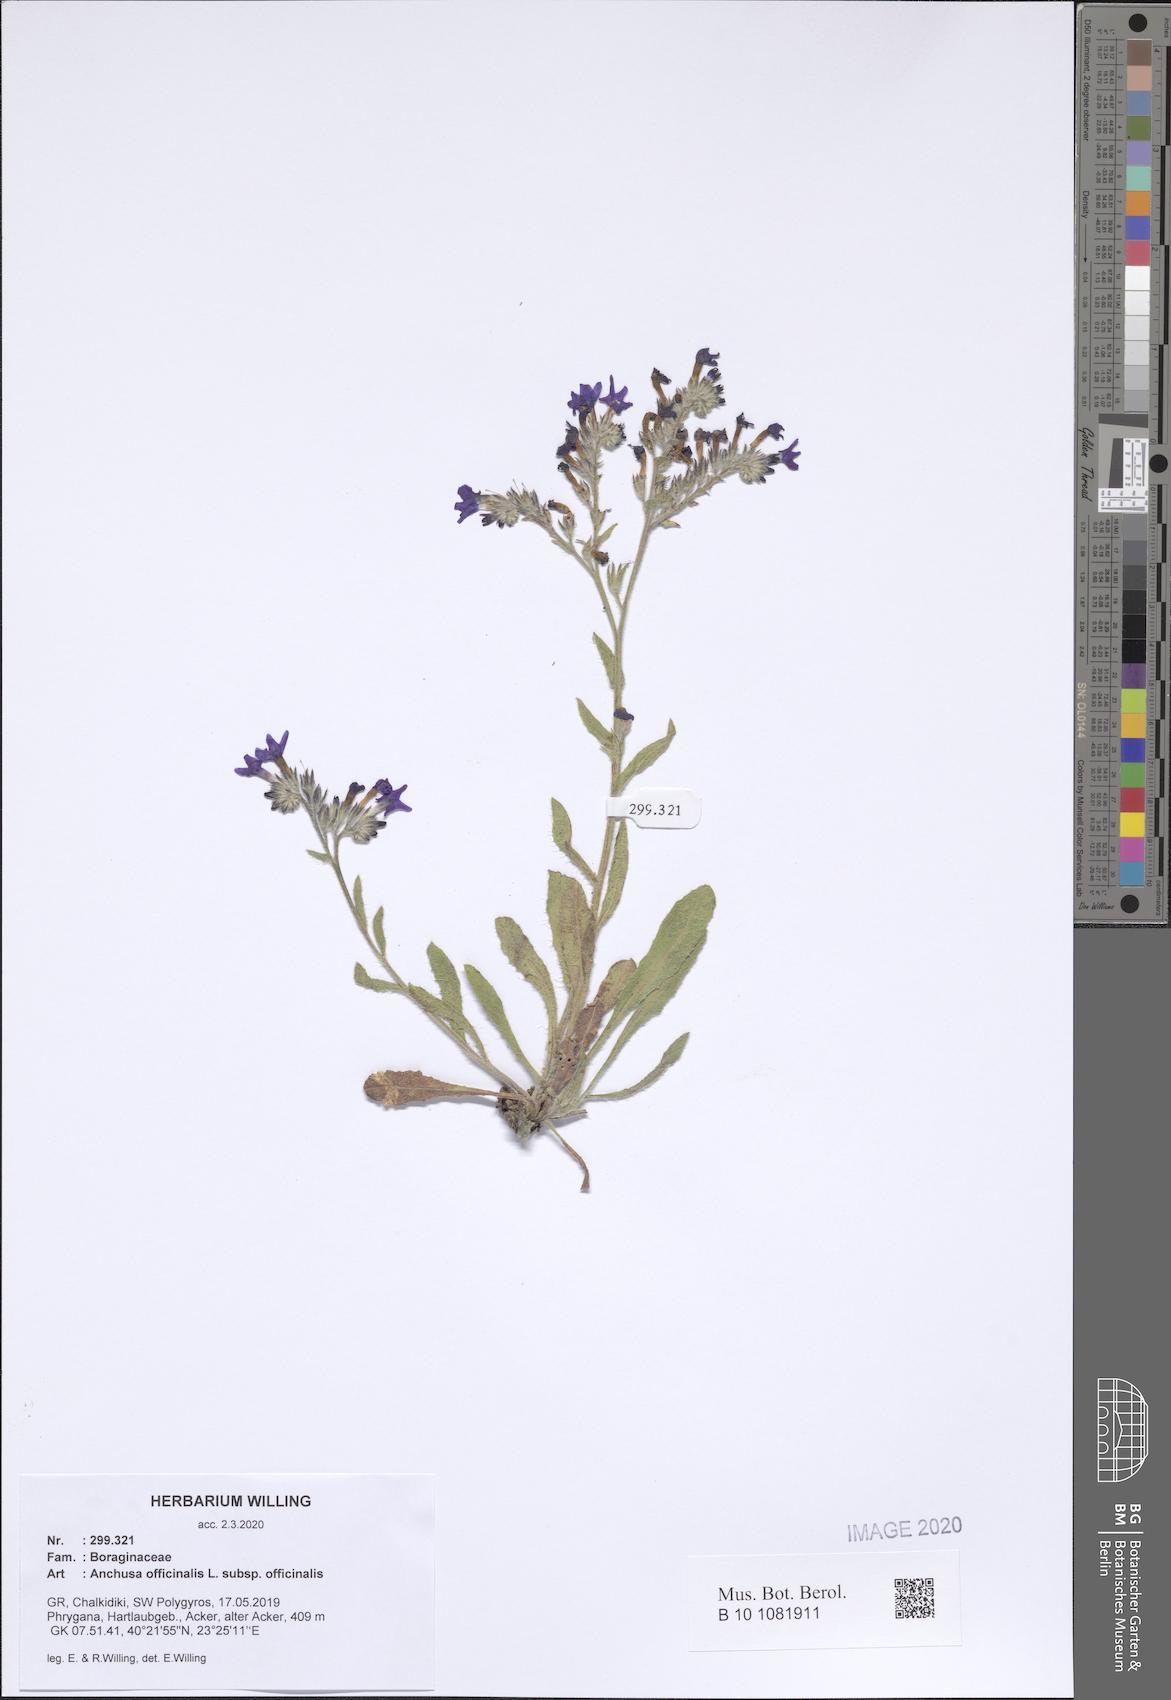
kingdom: Plantae
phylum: Tracheophyta
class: Magnoliopsida
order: Boraginales
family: Boraginaceae
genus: Anchusa
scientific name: Anchusa officinalis
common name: Alkanet
